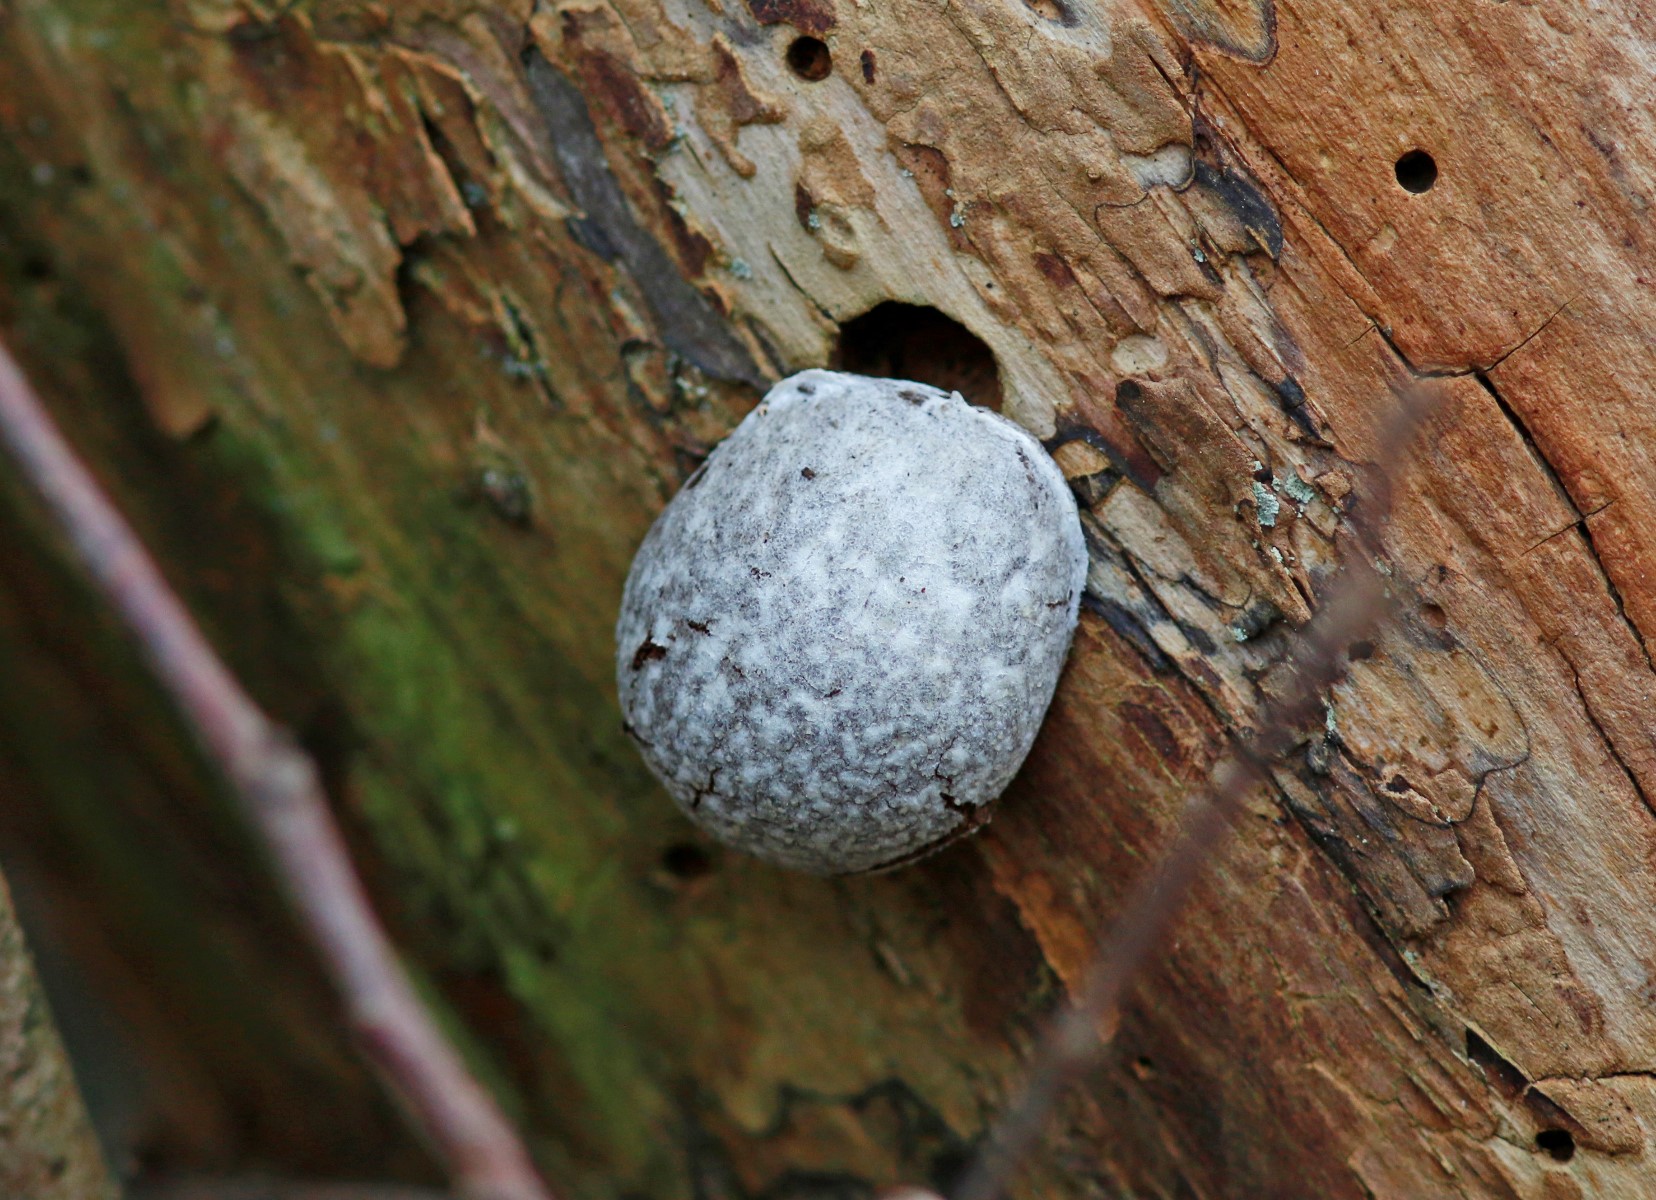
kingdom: Protozoa
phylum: Mycetozoa
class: Myxomycetes
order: Cribrariales
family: Tubiferaceae
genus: Reticularia
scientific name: Reticularia lycoperdon
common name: skinnende støvpude
